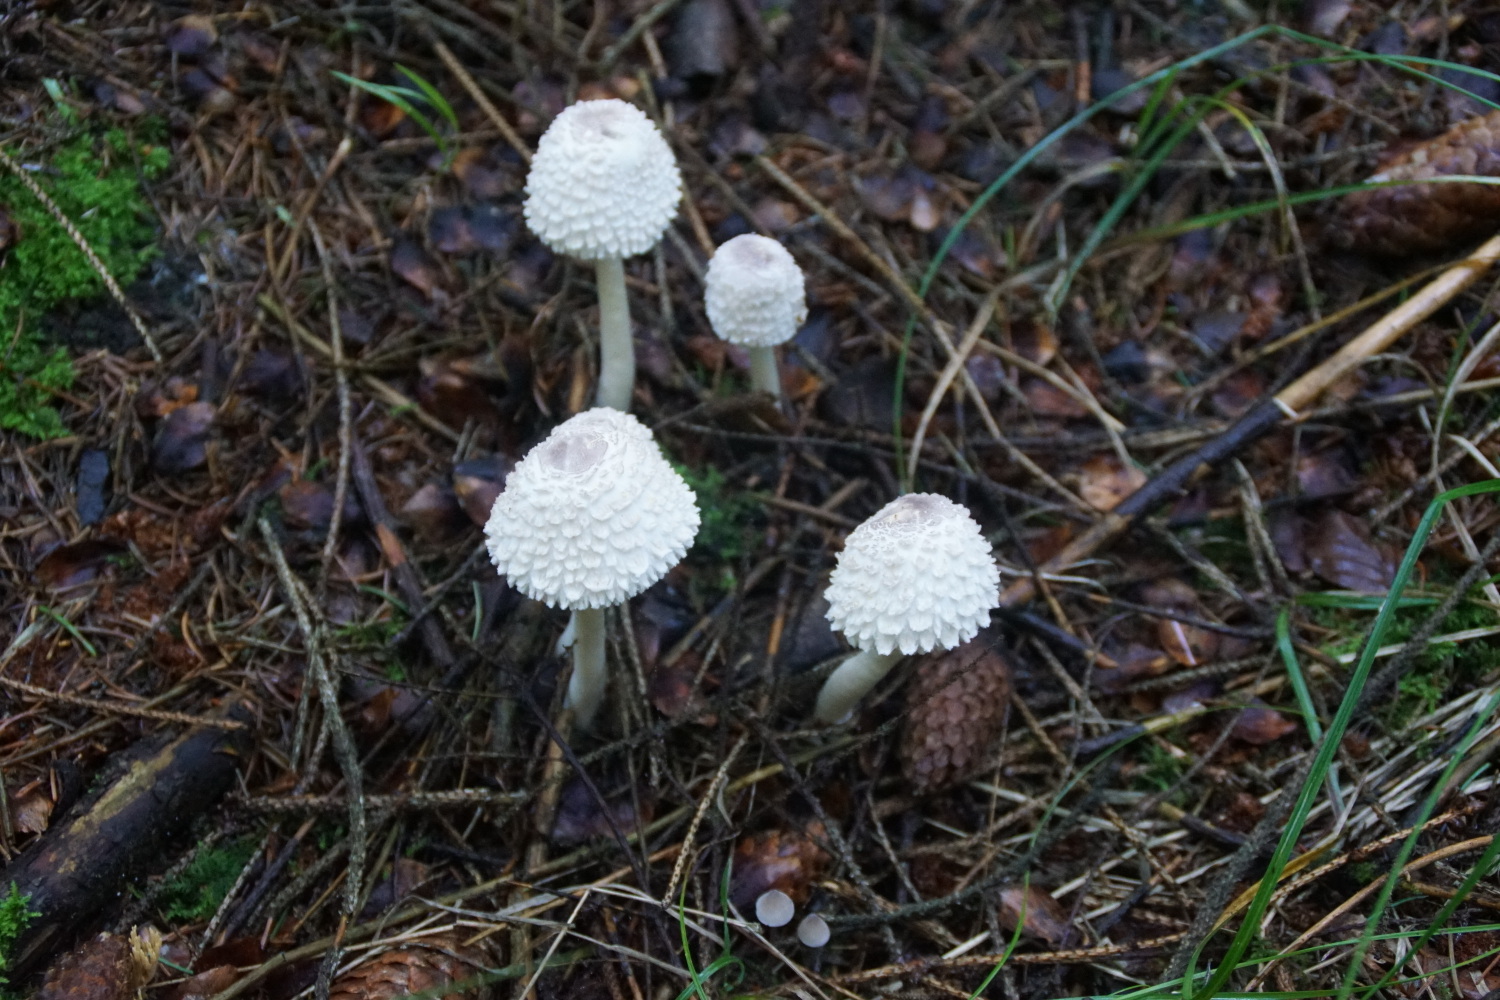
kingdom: Fungi
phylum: Basidiomycota
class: Agaricomycetes
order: Agaricales
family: Agaricaceae
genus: Leucoagaricus
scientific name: Leucoagaricus nympharum
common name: gran-silkehat
